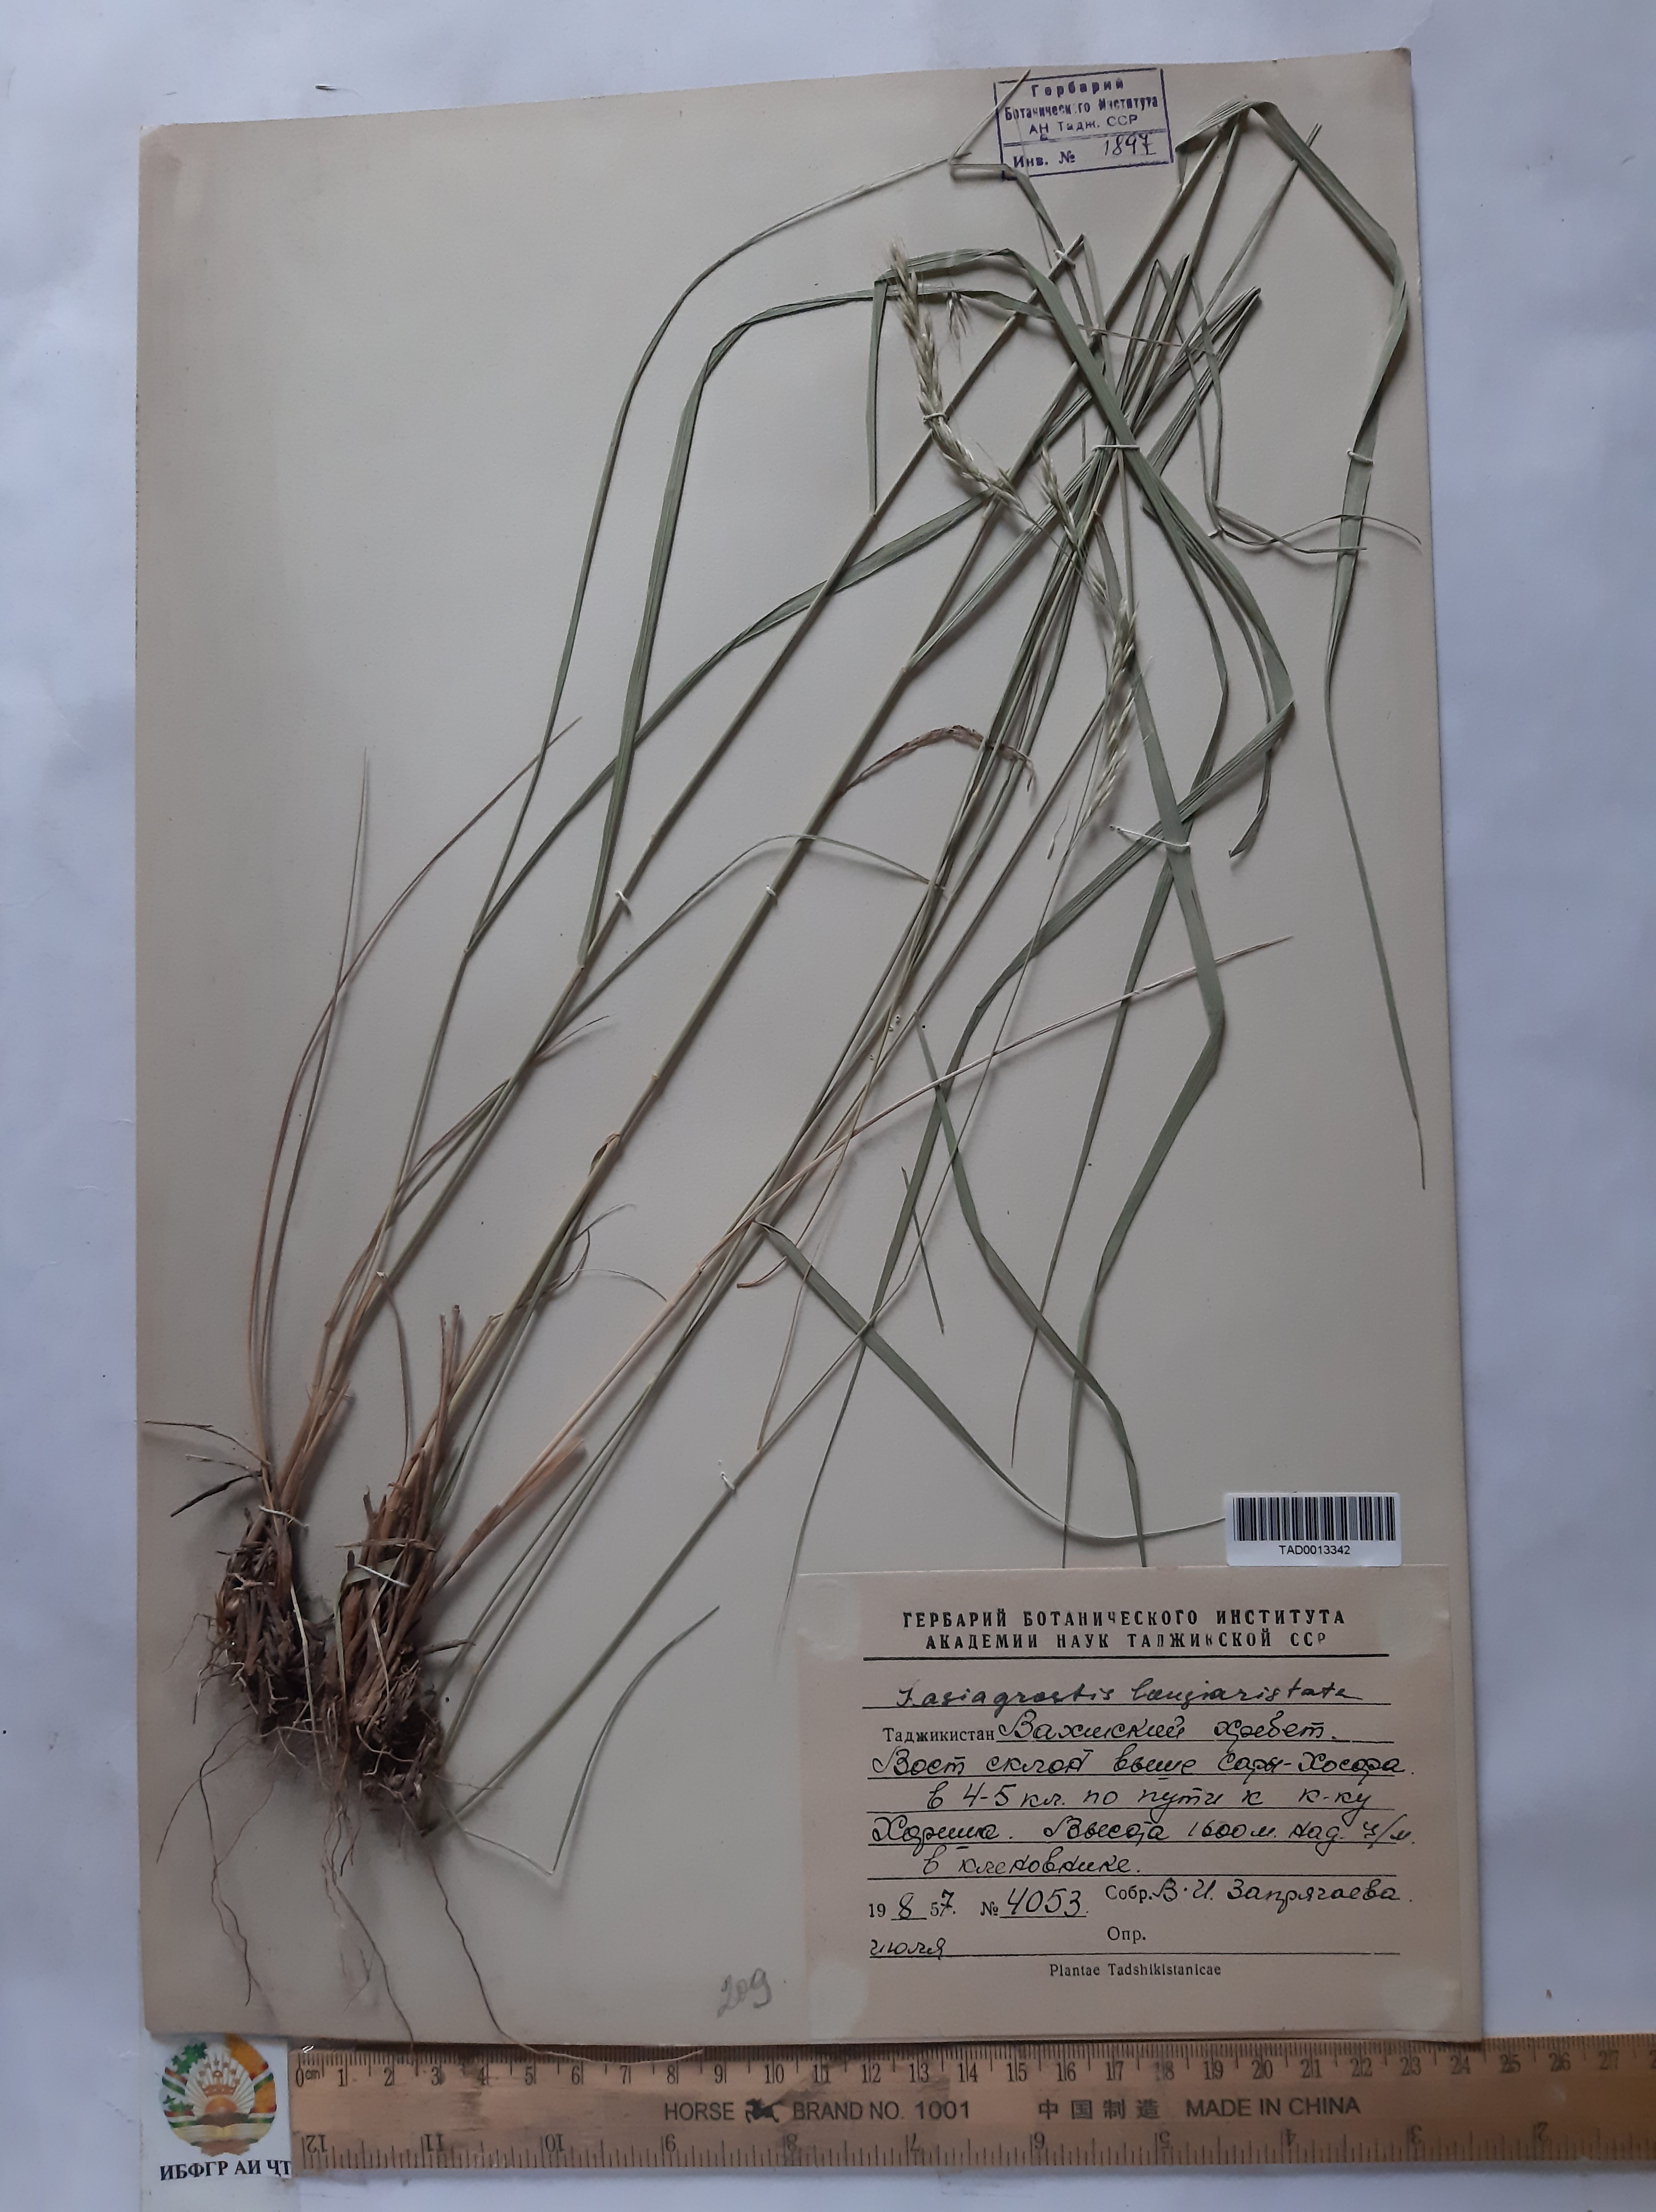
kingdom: Plantae
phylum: Tracheophyta
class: Liliopsida
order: Poales
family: Poaceae
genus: Achnatherum
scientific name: Achnatherum turcomanicum
